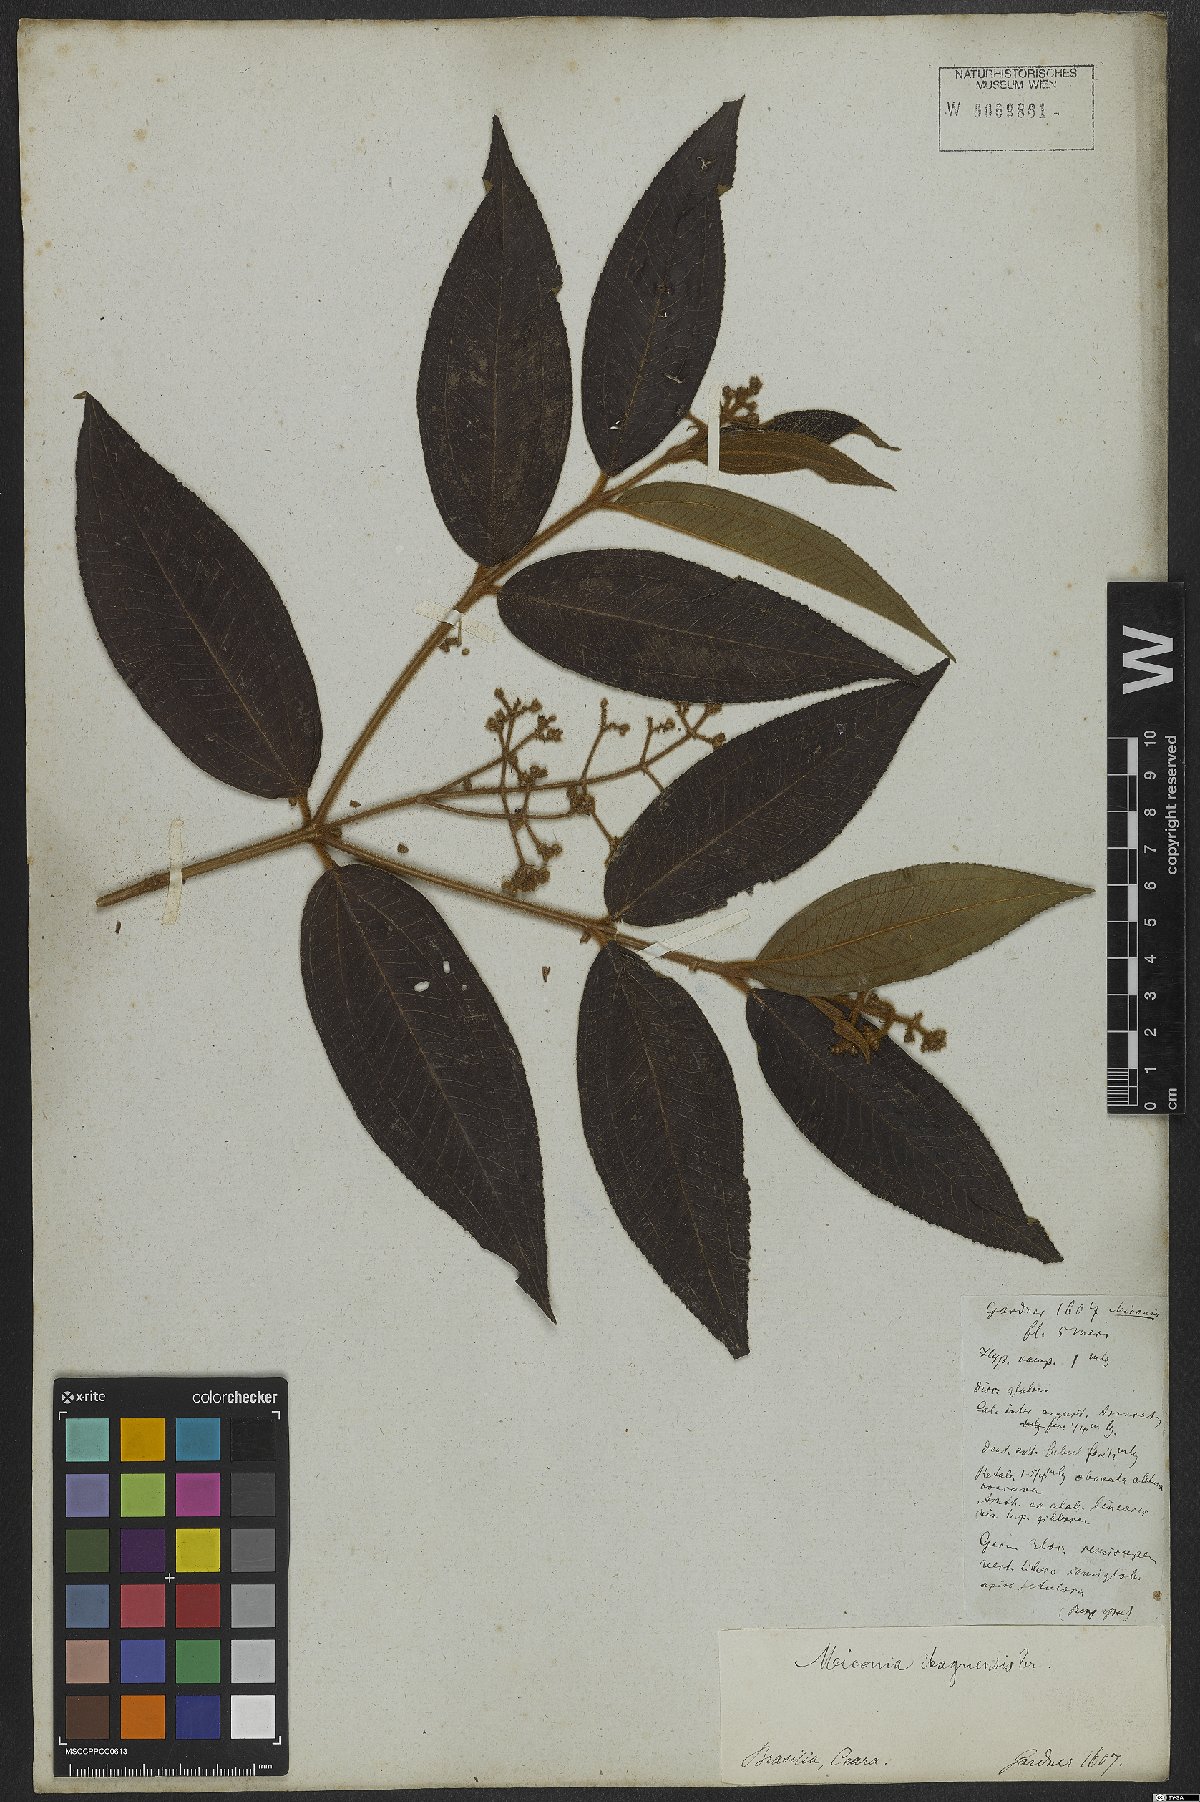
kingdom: Plantae
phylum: Tracheophyta
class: Magnoliopsida
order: Myrtales
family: Melastomataceae
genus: Miconia
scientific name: Miconia ibaguensis
